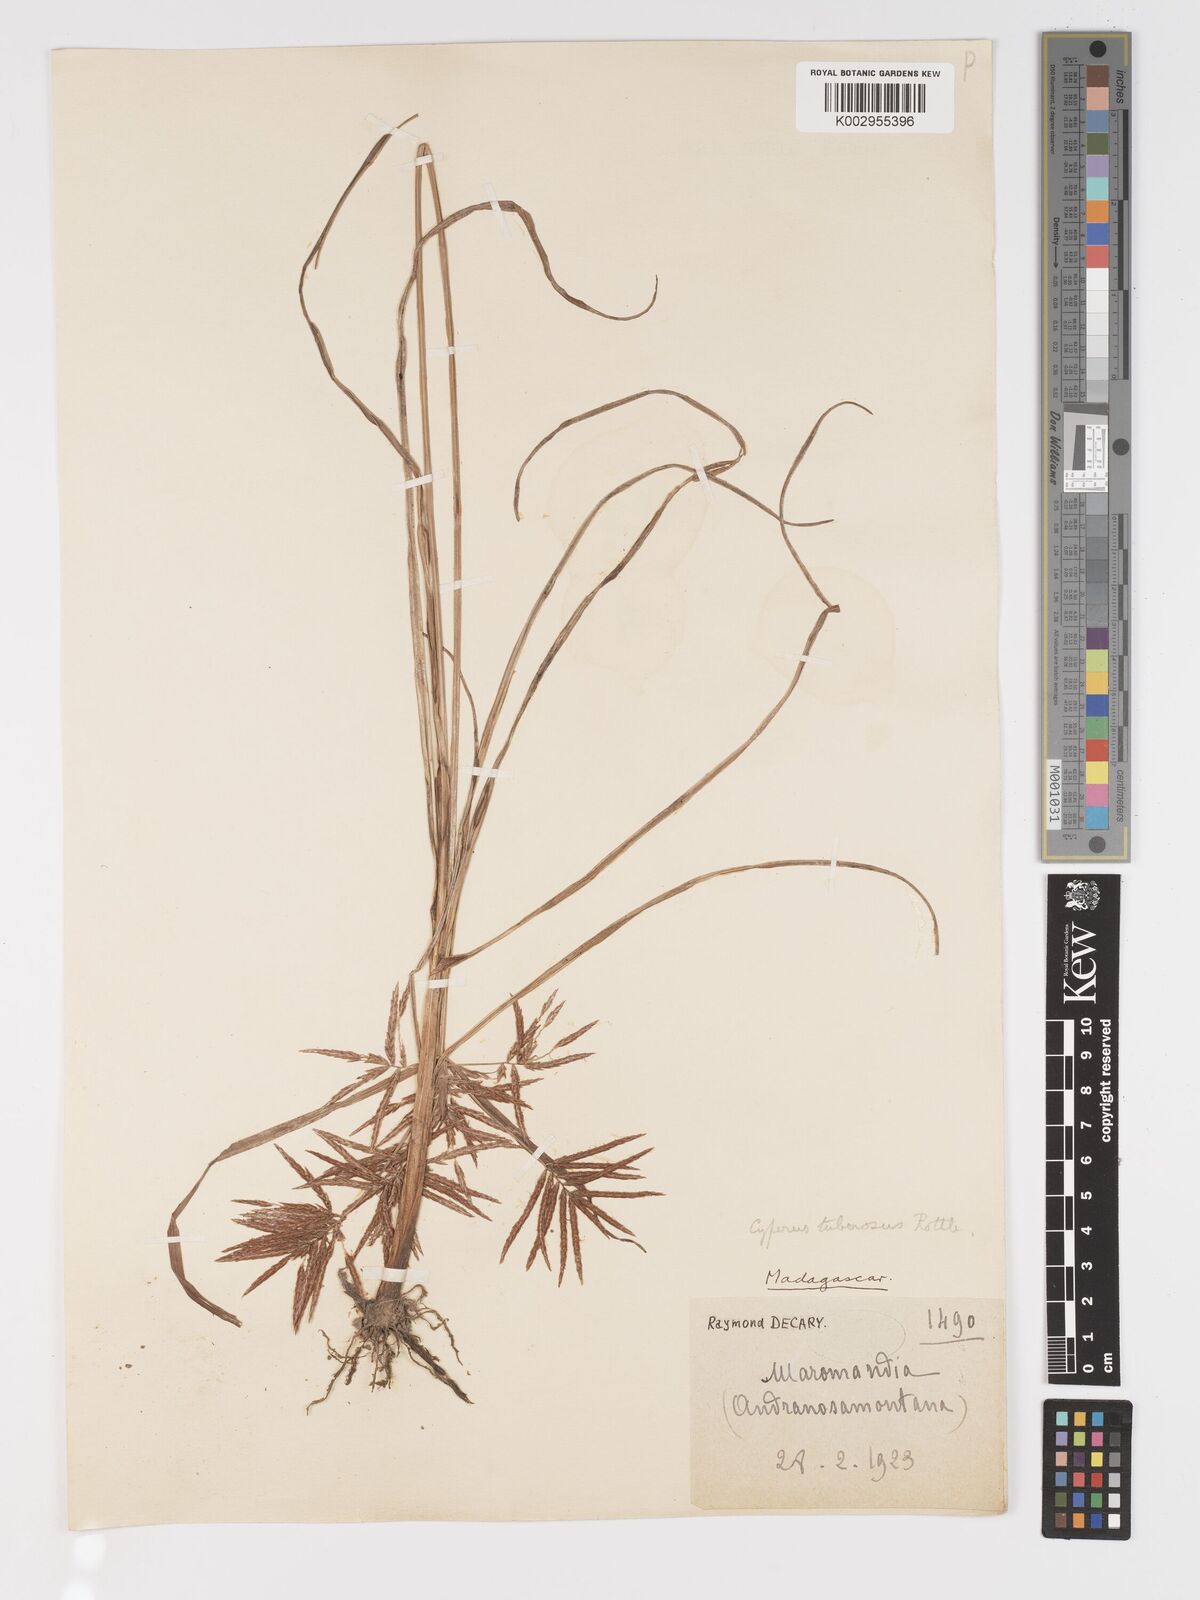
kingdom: Plantae
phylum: Tracheophyta
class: Liliopsida
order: Poales
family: Cyperaceae
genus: Cyperus
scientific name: Cyperus tuberosus
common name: Nut grass
